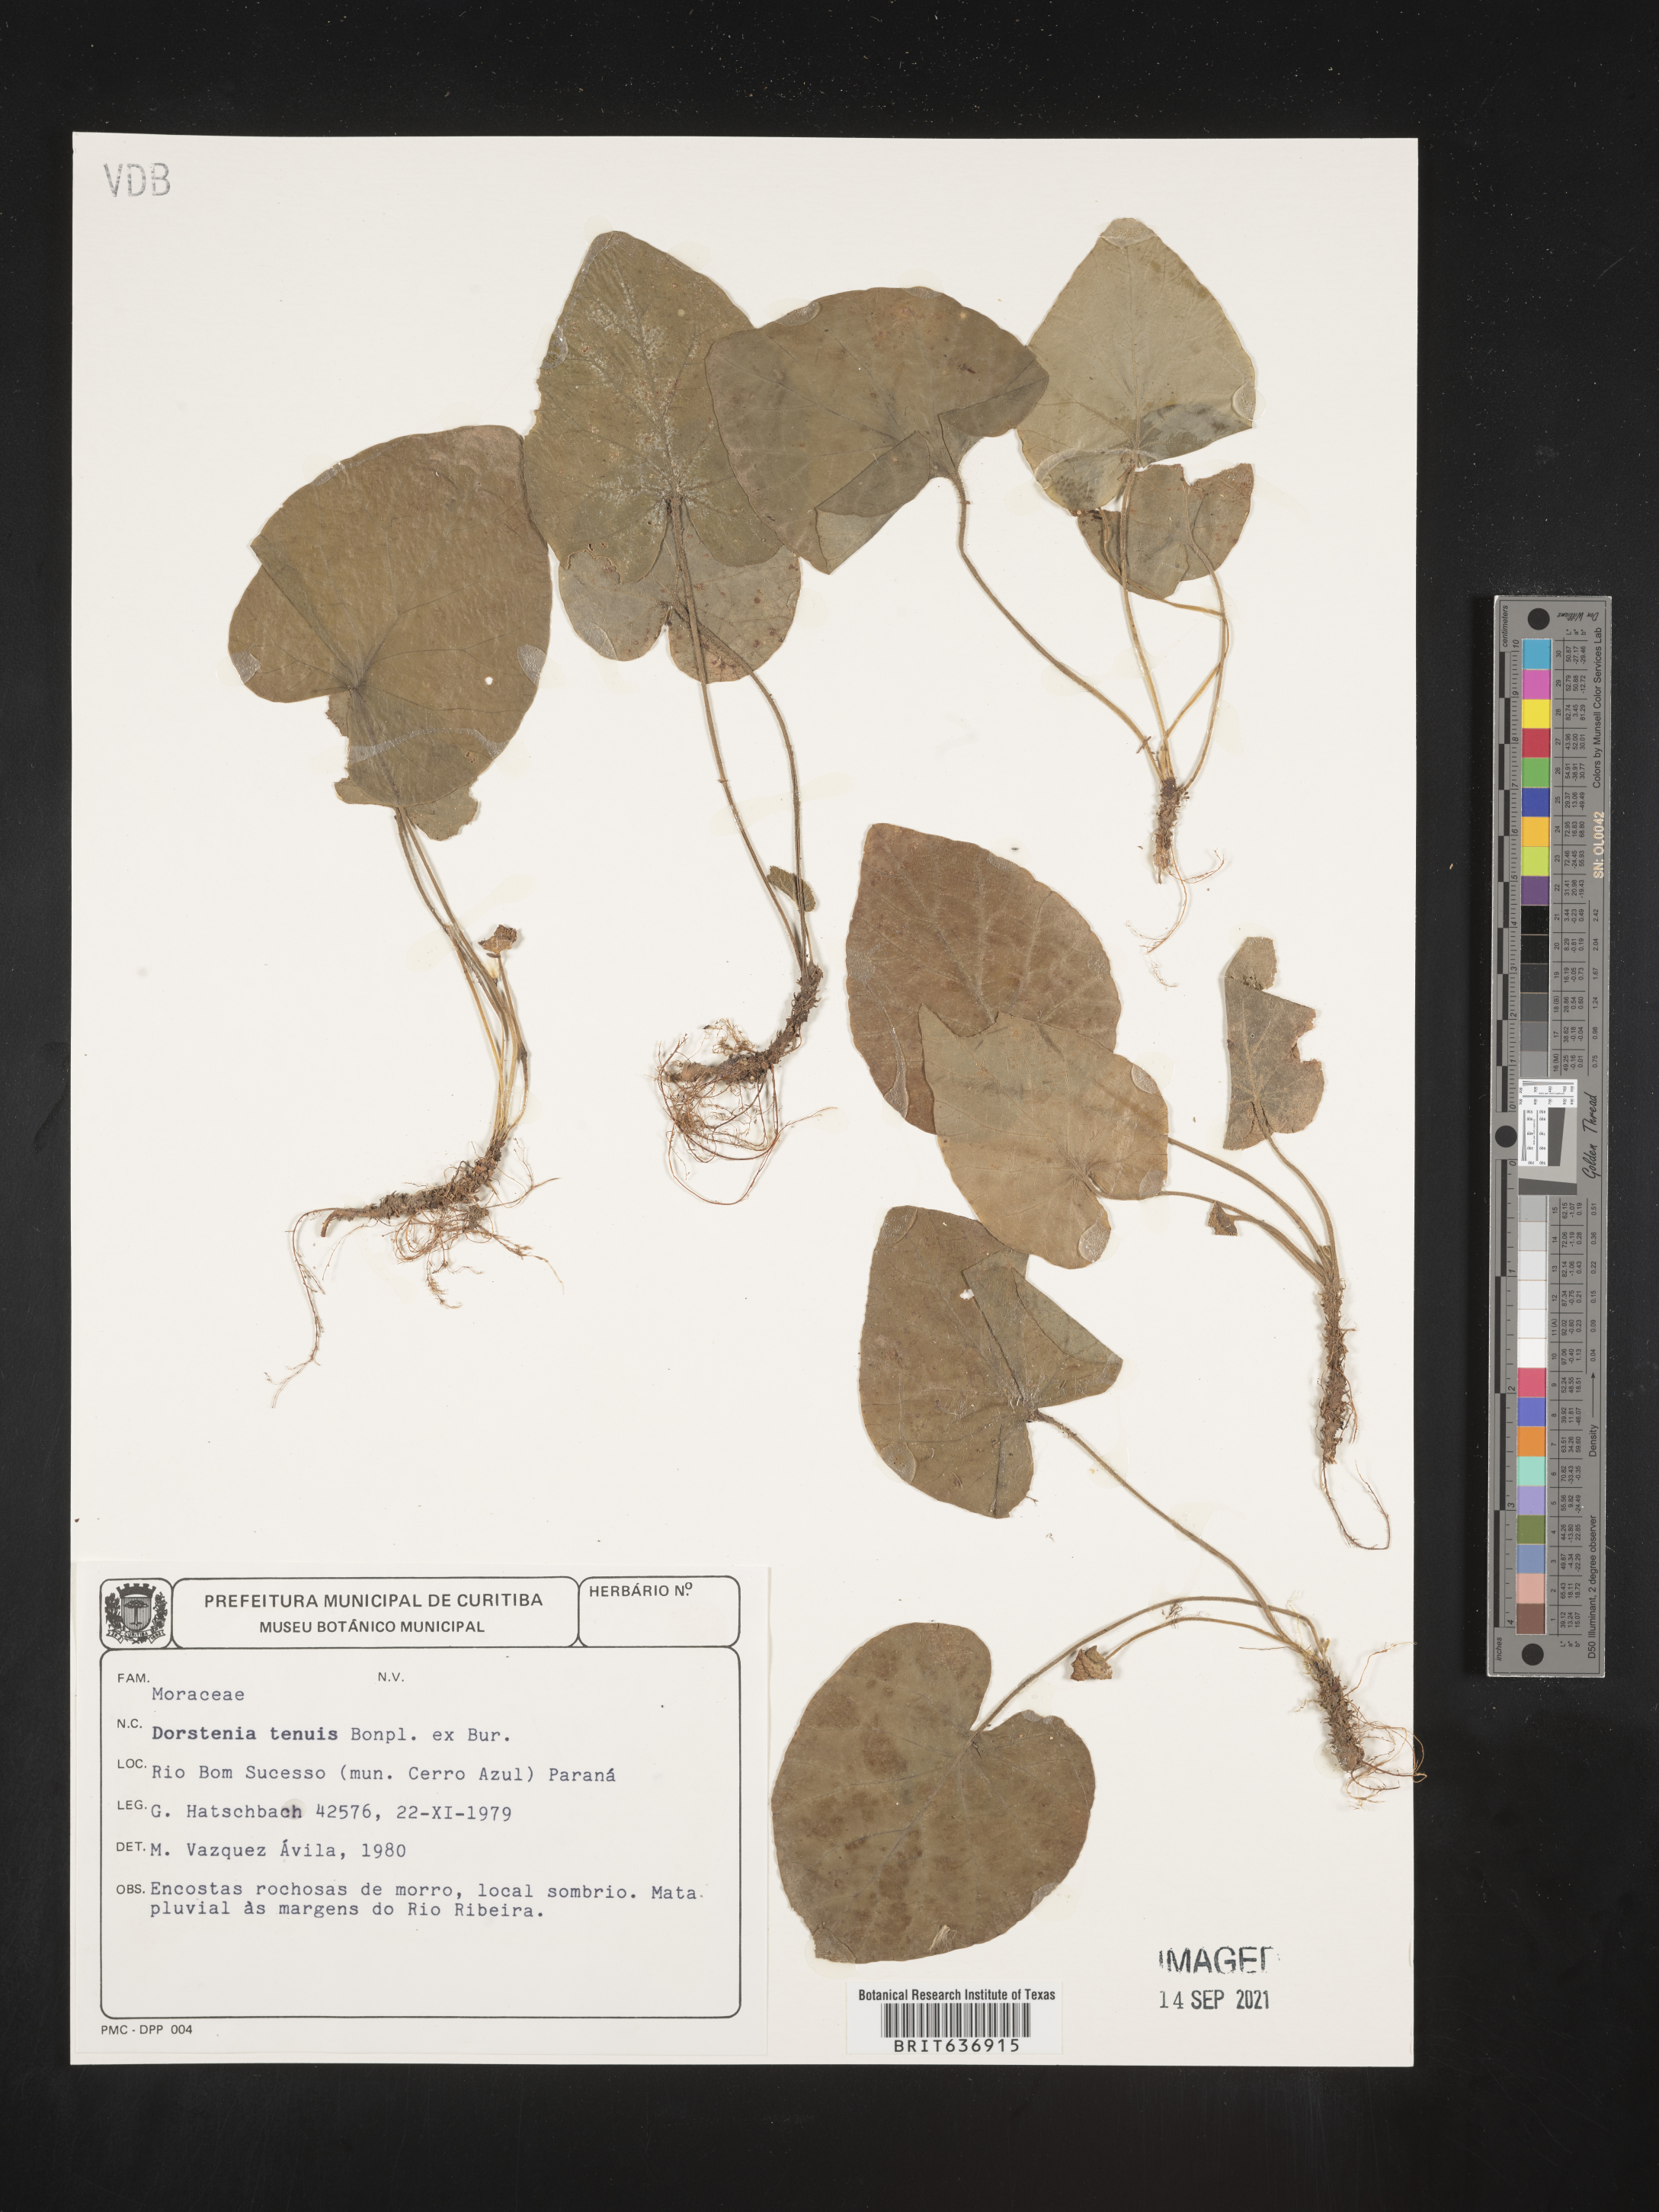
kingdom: Plantae
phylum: Tracheophyta
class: Magnoliopsida
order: Rosales
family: Moraceae
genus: Dorstenia
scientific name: Dorstenia
